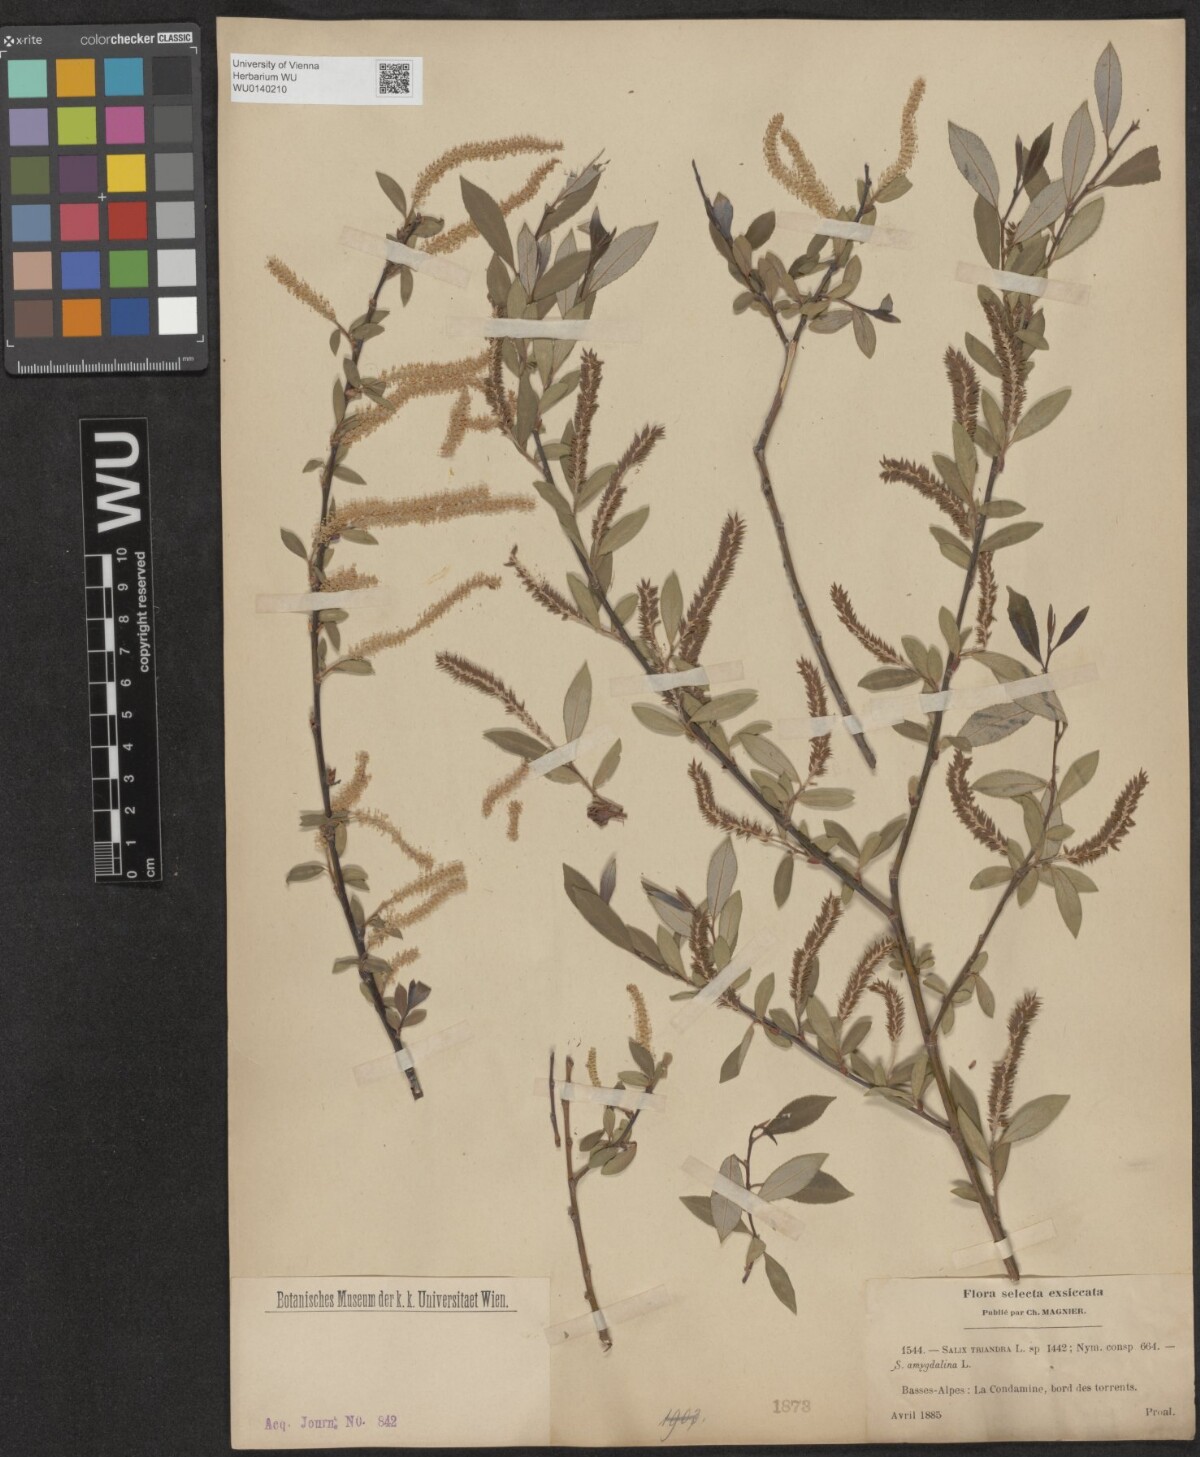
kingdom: Plantae
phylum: Tracheophyta
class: Magnoliopsida
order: Malpighiales
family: Salicaceae
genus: Salix
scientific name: Salix triandra
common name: Almond willow
